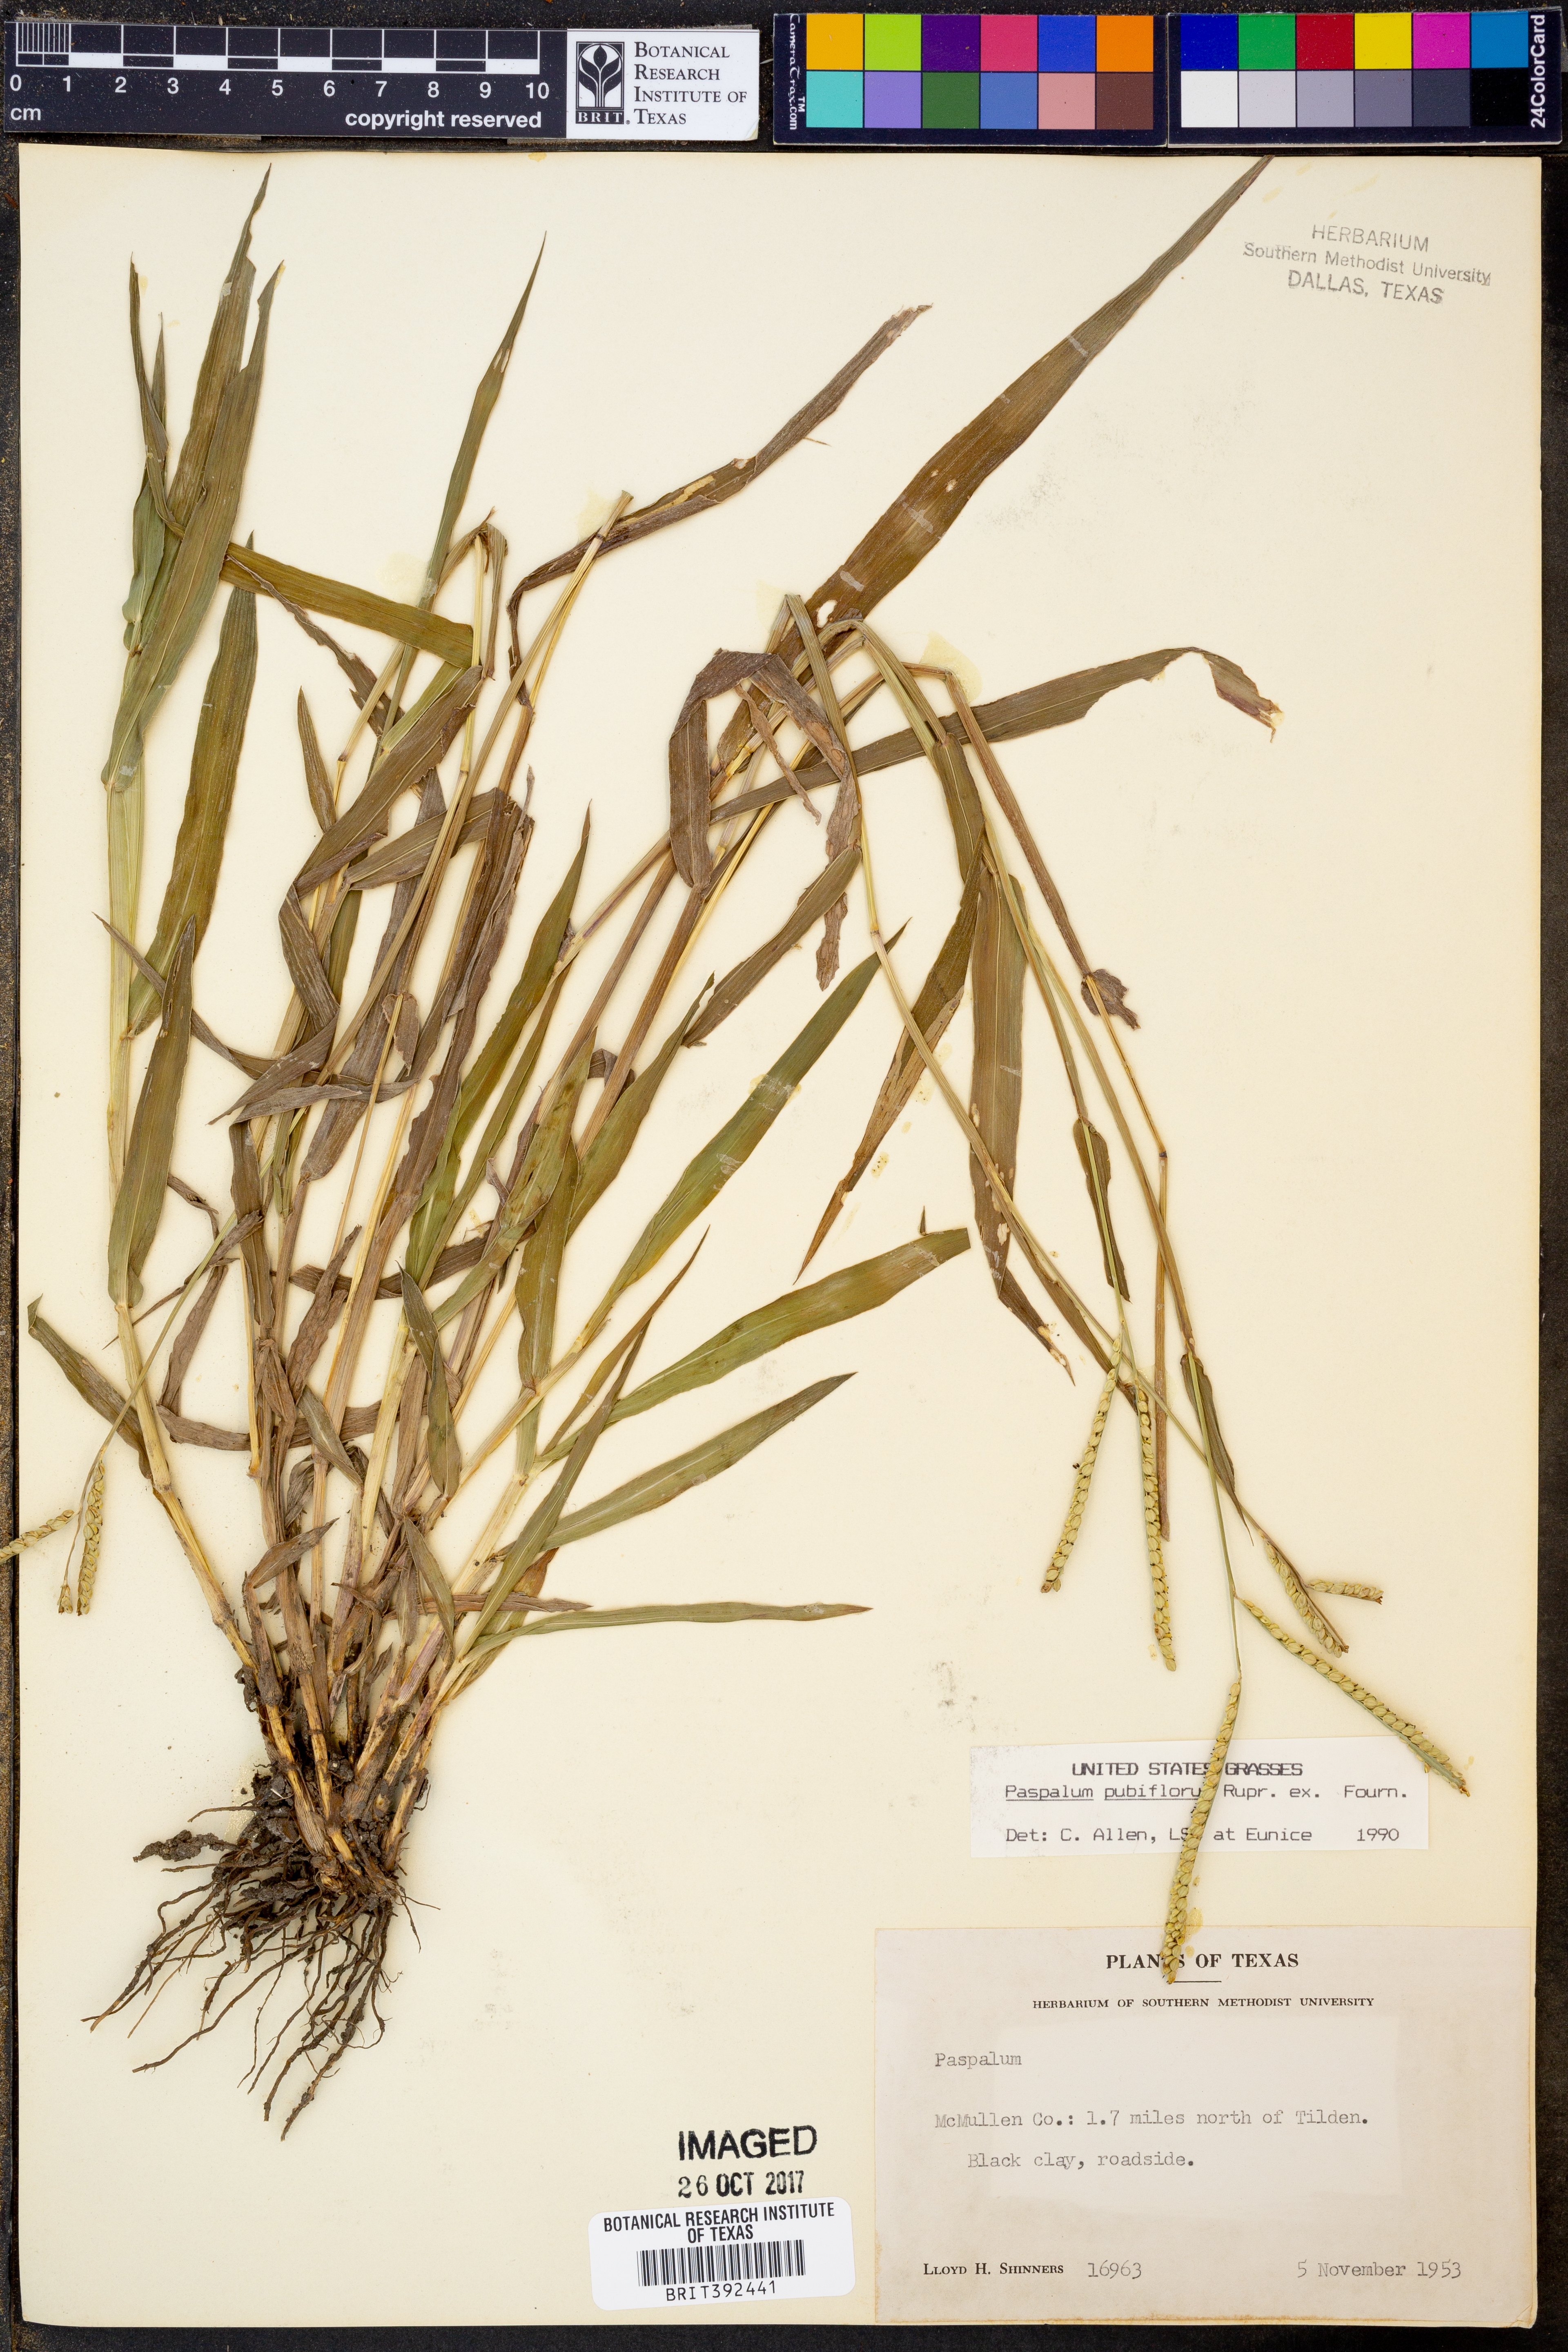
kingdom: Plantae
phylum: Tracheophyta
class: Liliopsida
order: Poales
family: Poaceae
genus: Paspalum
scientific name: Paspalum pubiflorum
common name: Hairy-seed paspalum
